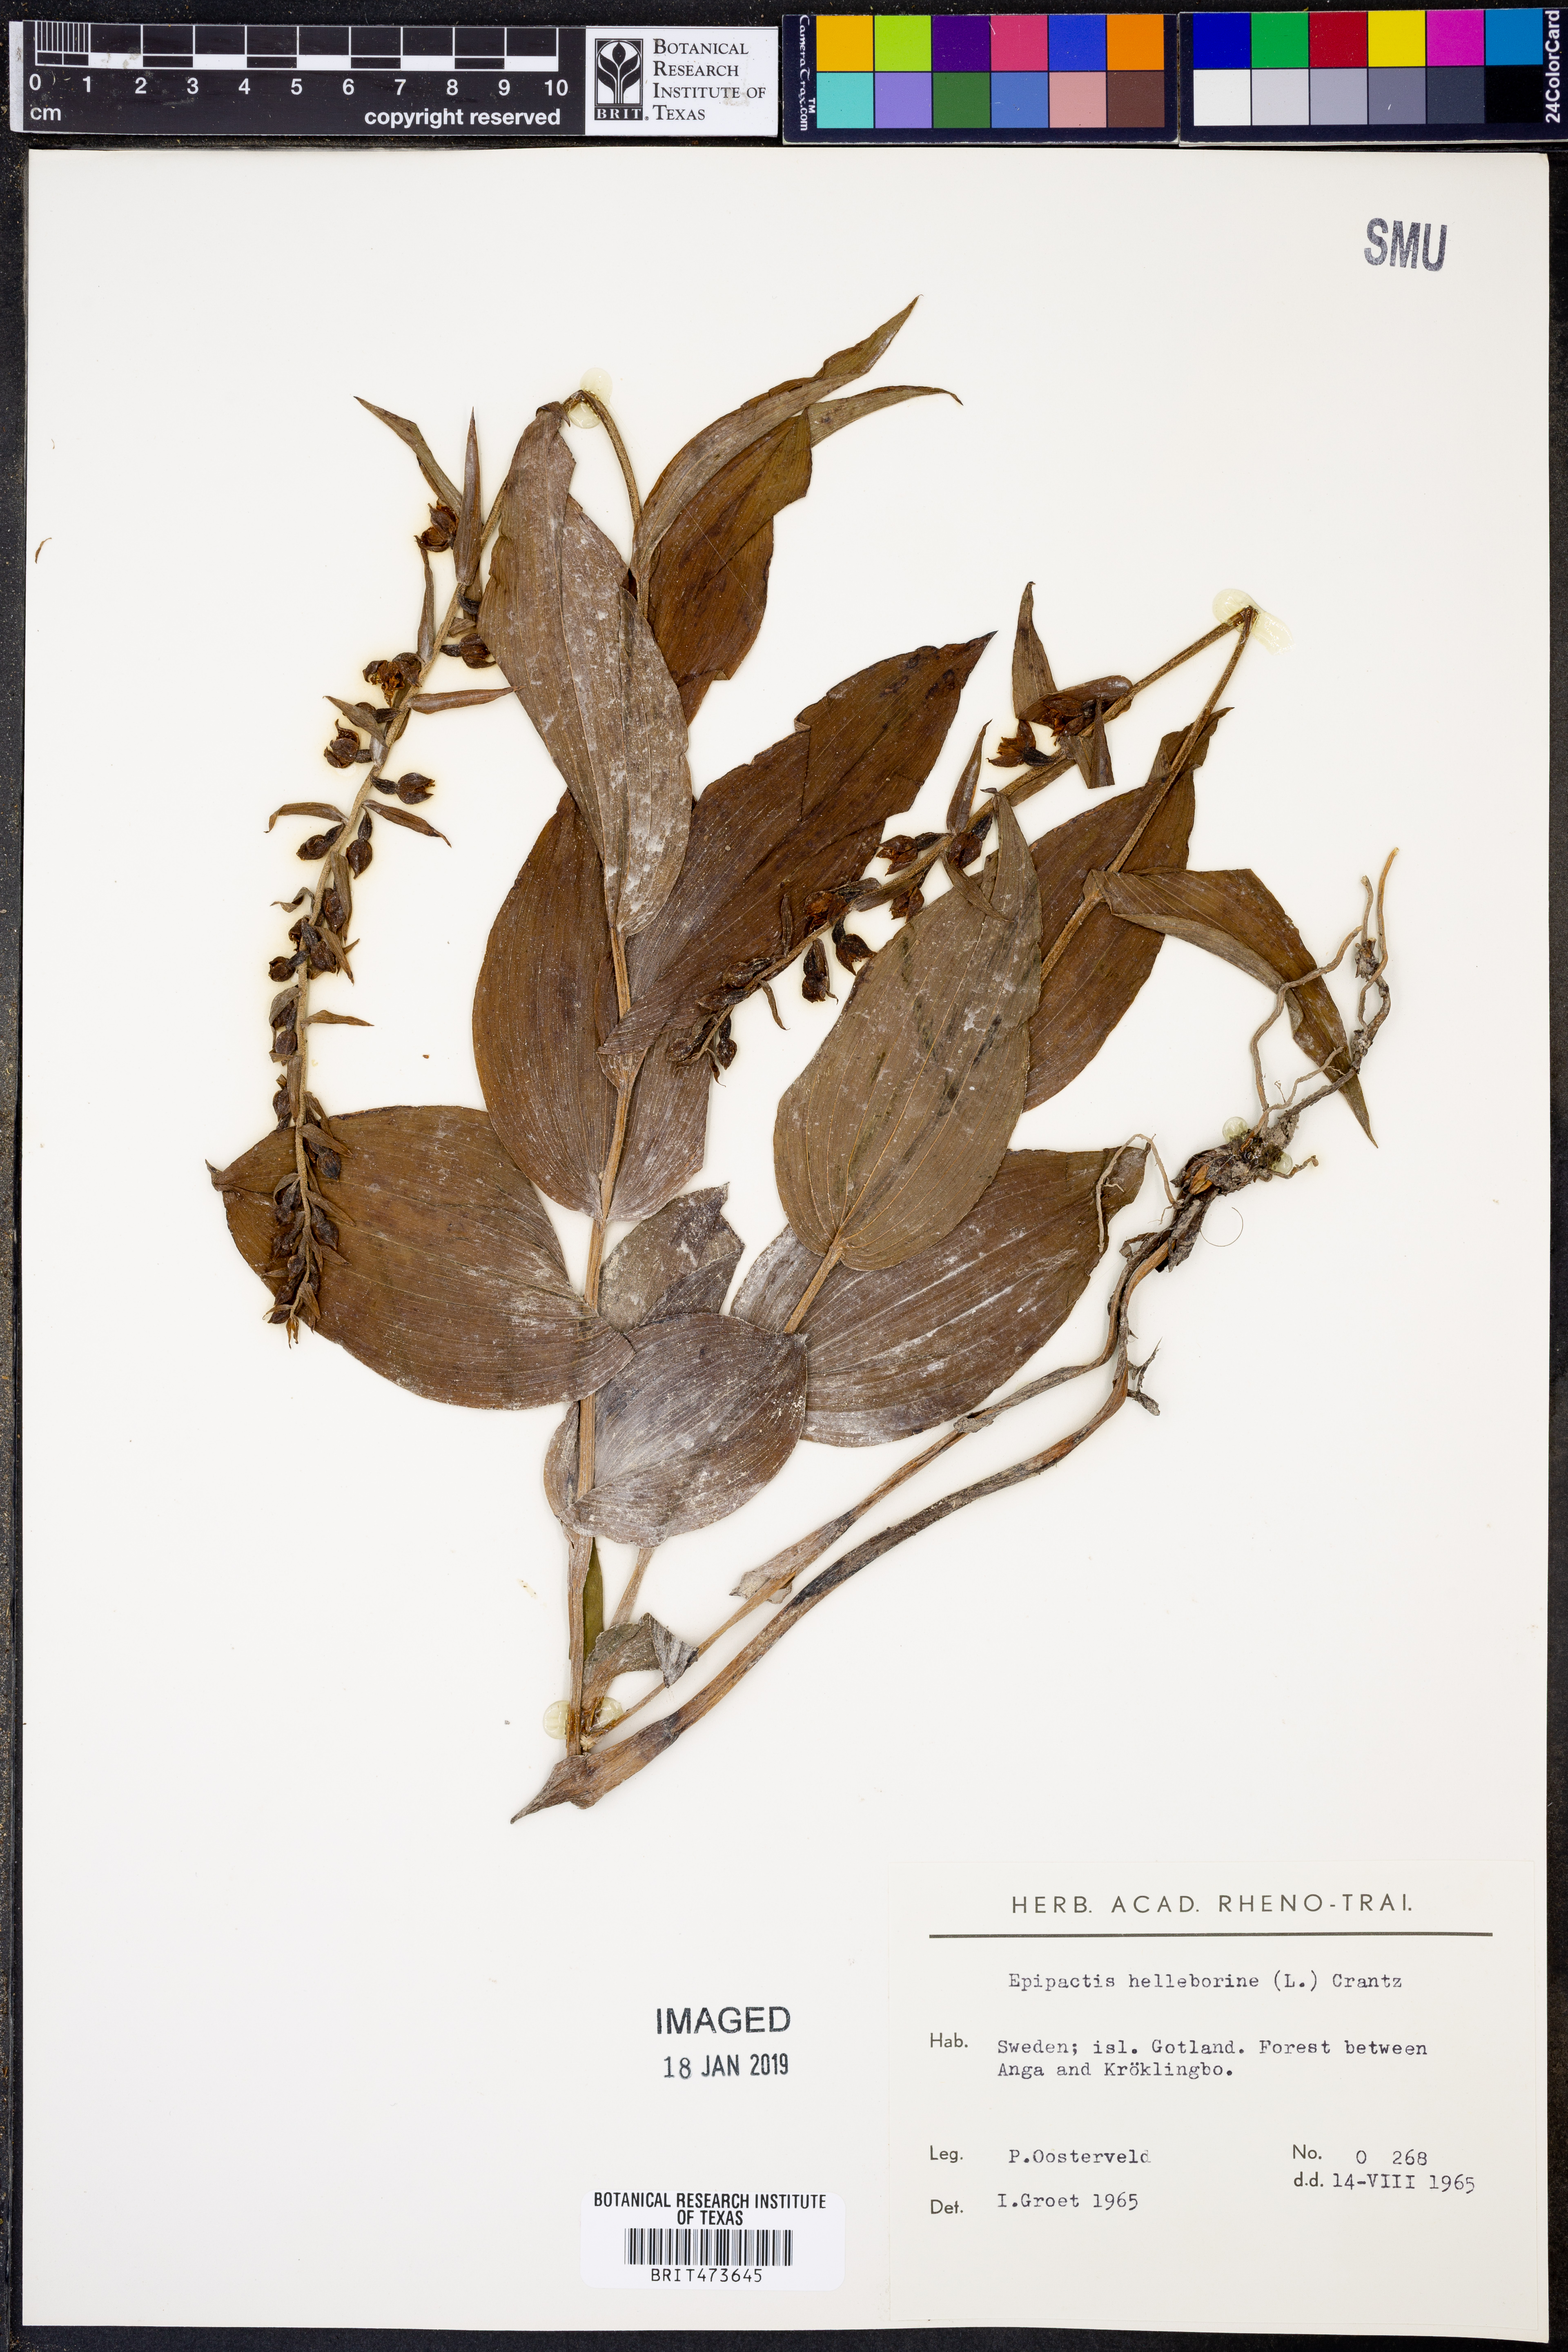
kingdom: Plantae
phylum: Tracheophyta
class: Liliopsida
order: Asparagales
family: Orchidaceae
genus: Epipactis
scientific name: Epipactis helleborine
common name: Broad-leaved helleborine
